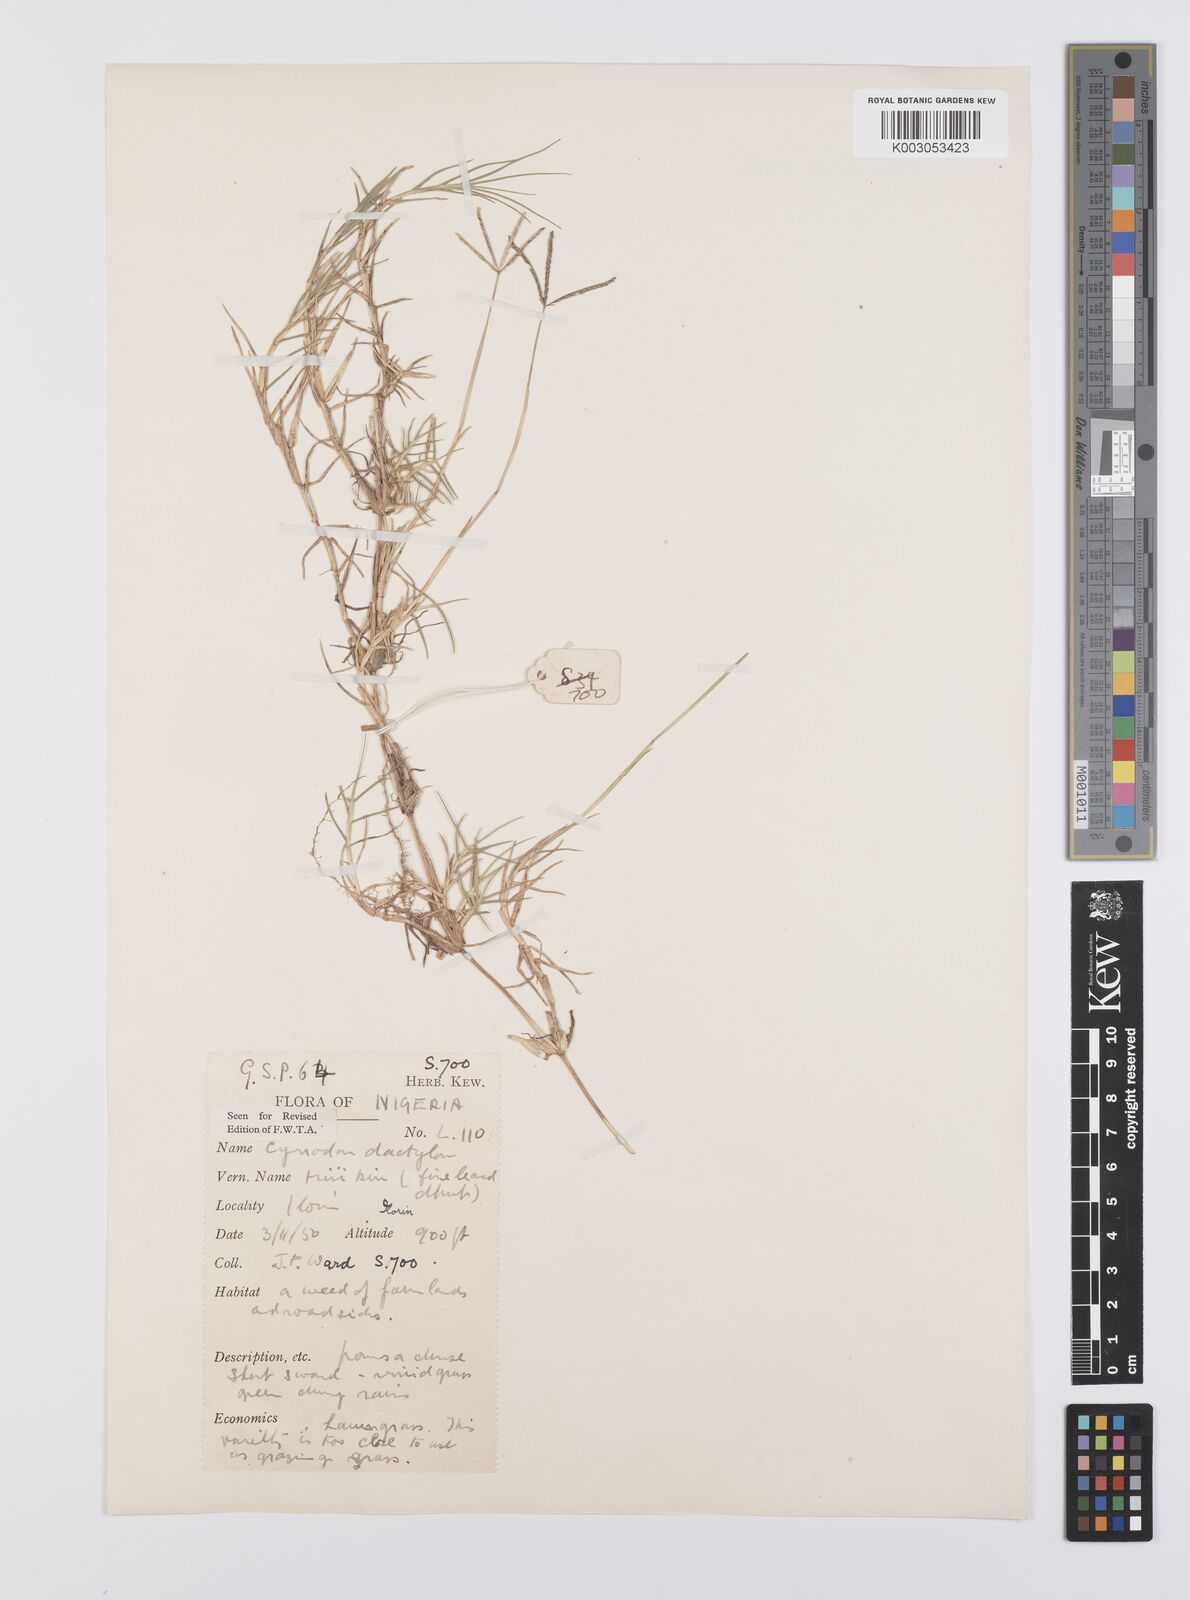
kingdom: Plantae
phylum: Tracheophyta
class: Liliopsida
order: Poales
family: Poaceae
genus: Cynodon
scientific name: Cynodon dactylon
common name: Bermuda grass
